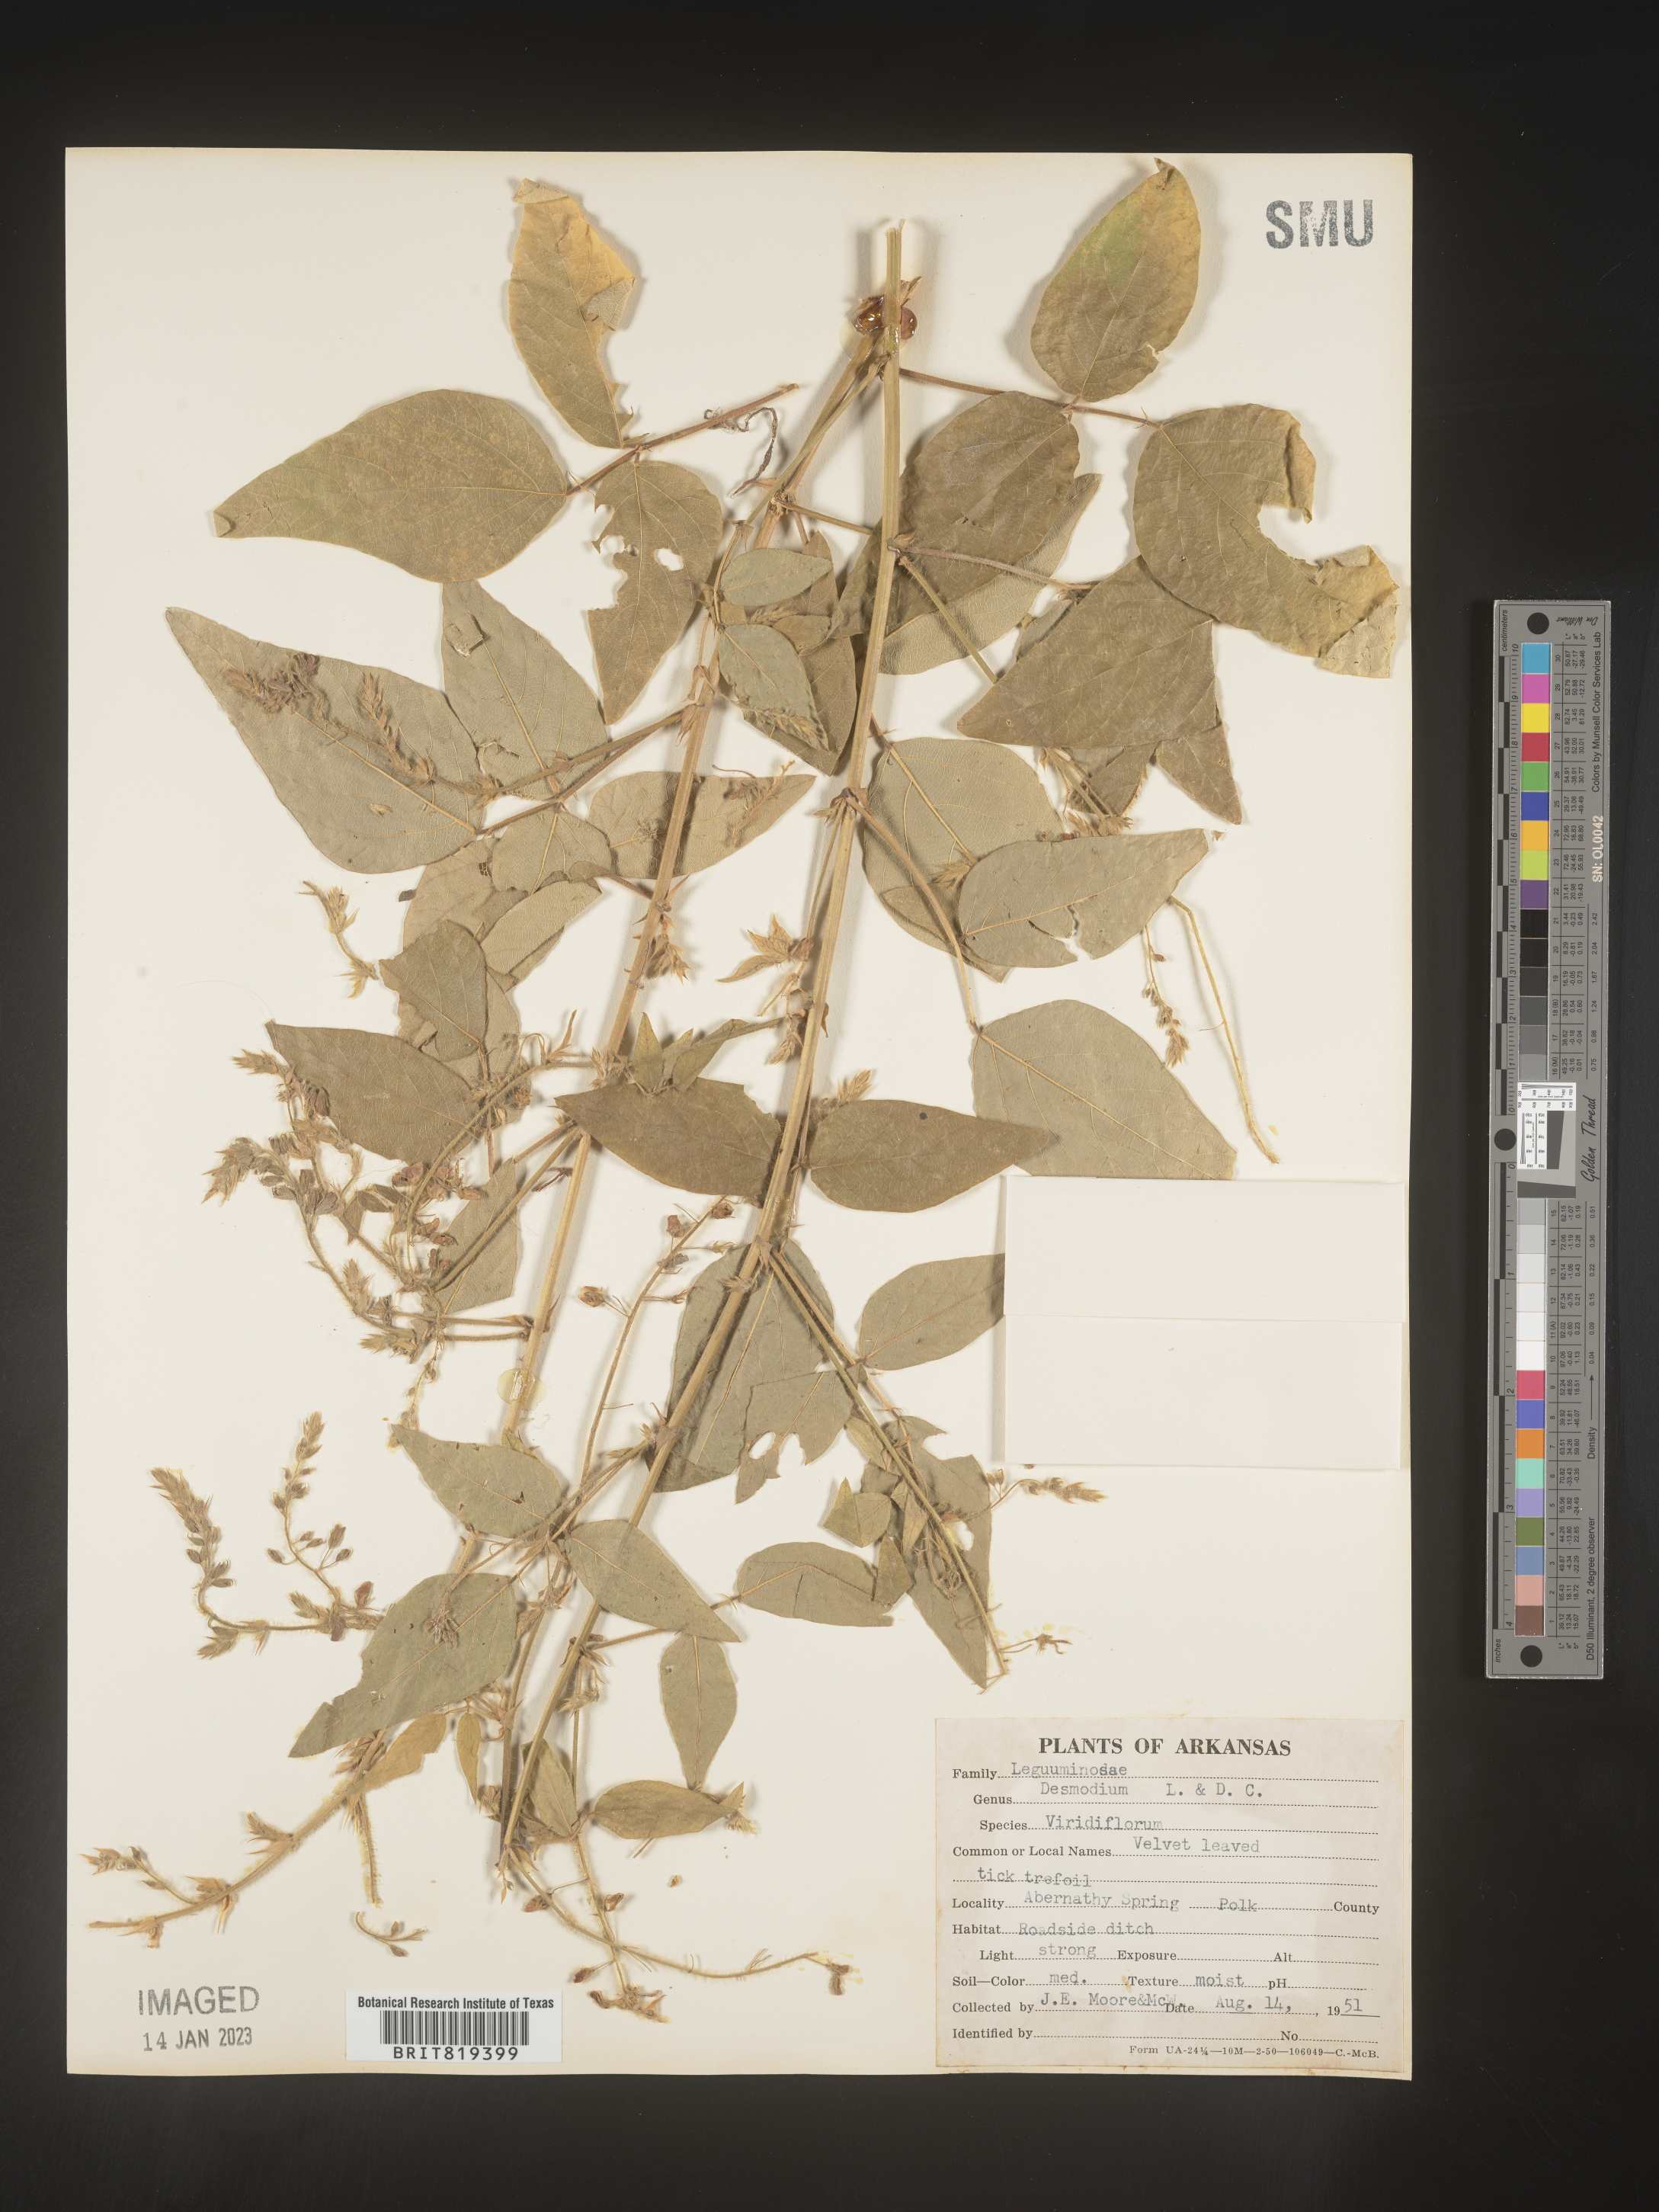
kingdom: Plantae
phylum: Tracheophyta
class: Magnoliopsida
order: Fabales
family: Fabaceae
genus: Desmodium
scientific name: Desmodium viridiflorum
